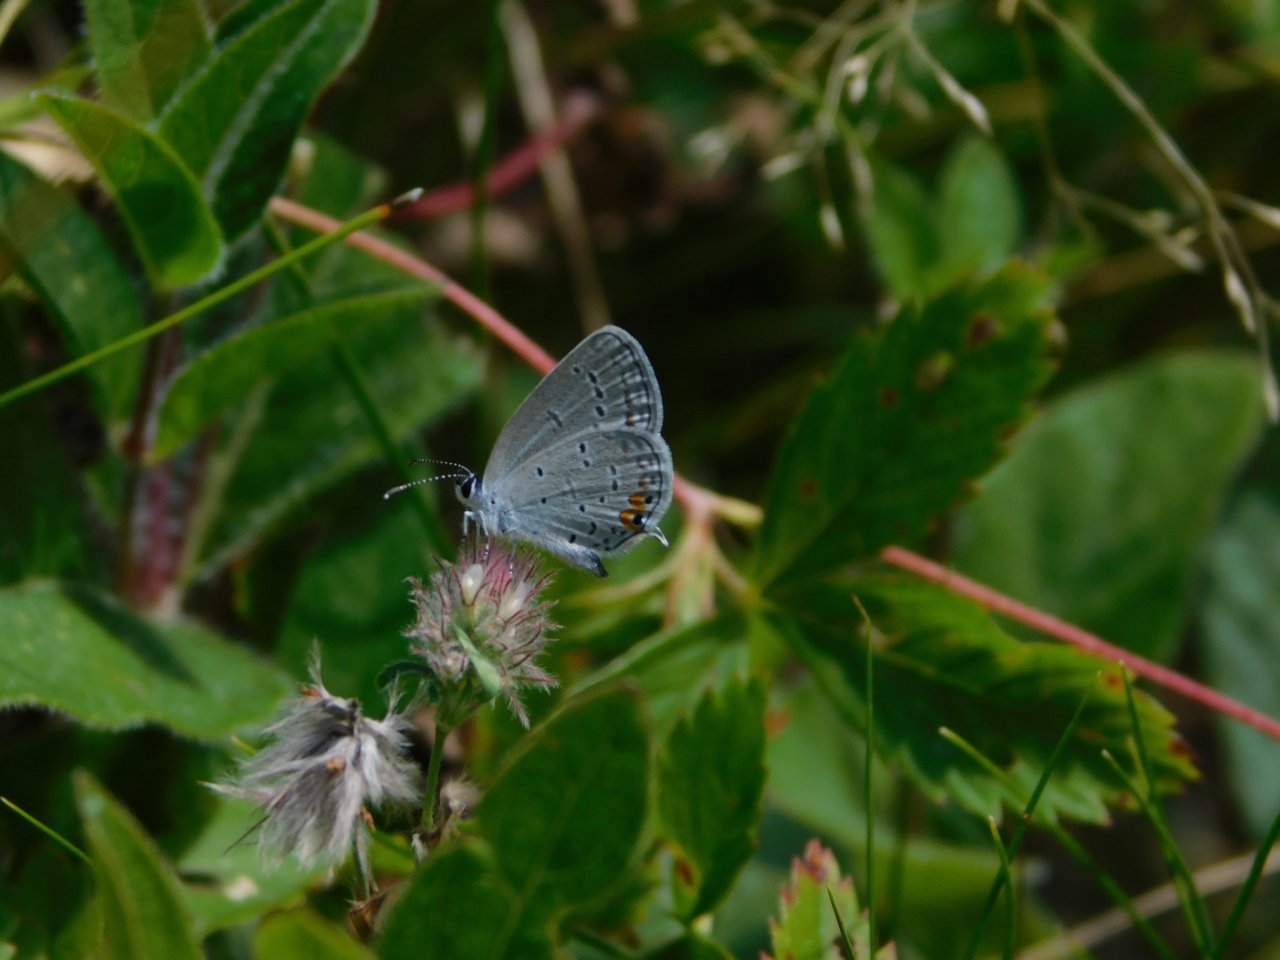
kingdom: Animalia
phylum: Arthropoda
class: Insecta
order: Lepidoptera
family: Lycaenidae
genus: Elkalyce
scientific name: Elkalyce comyntas
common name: Eastern Tailed-Blue
